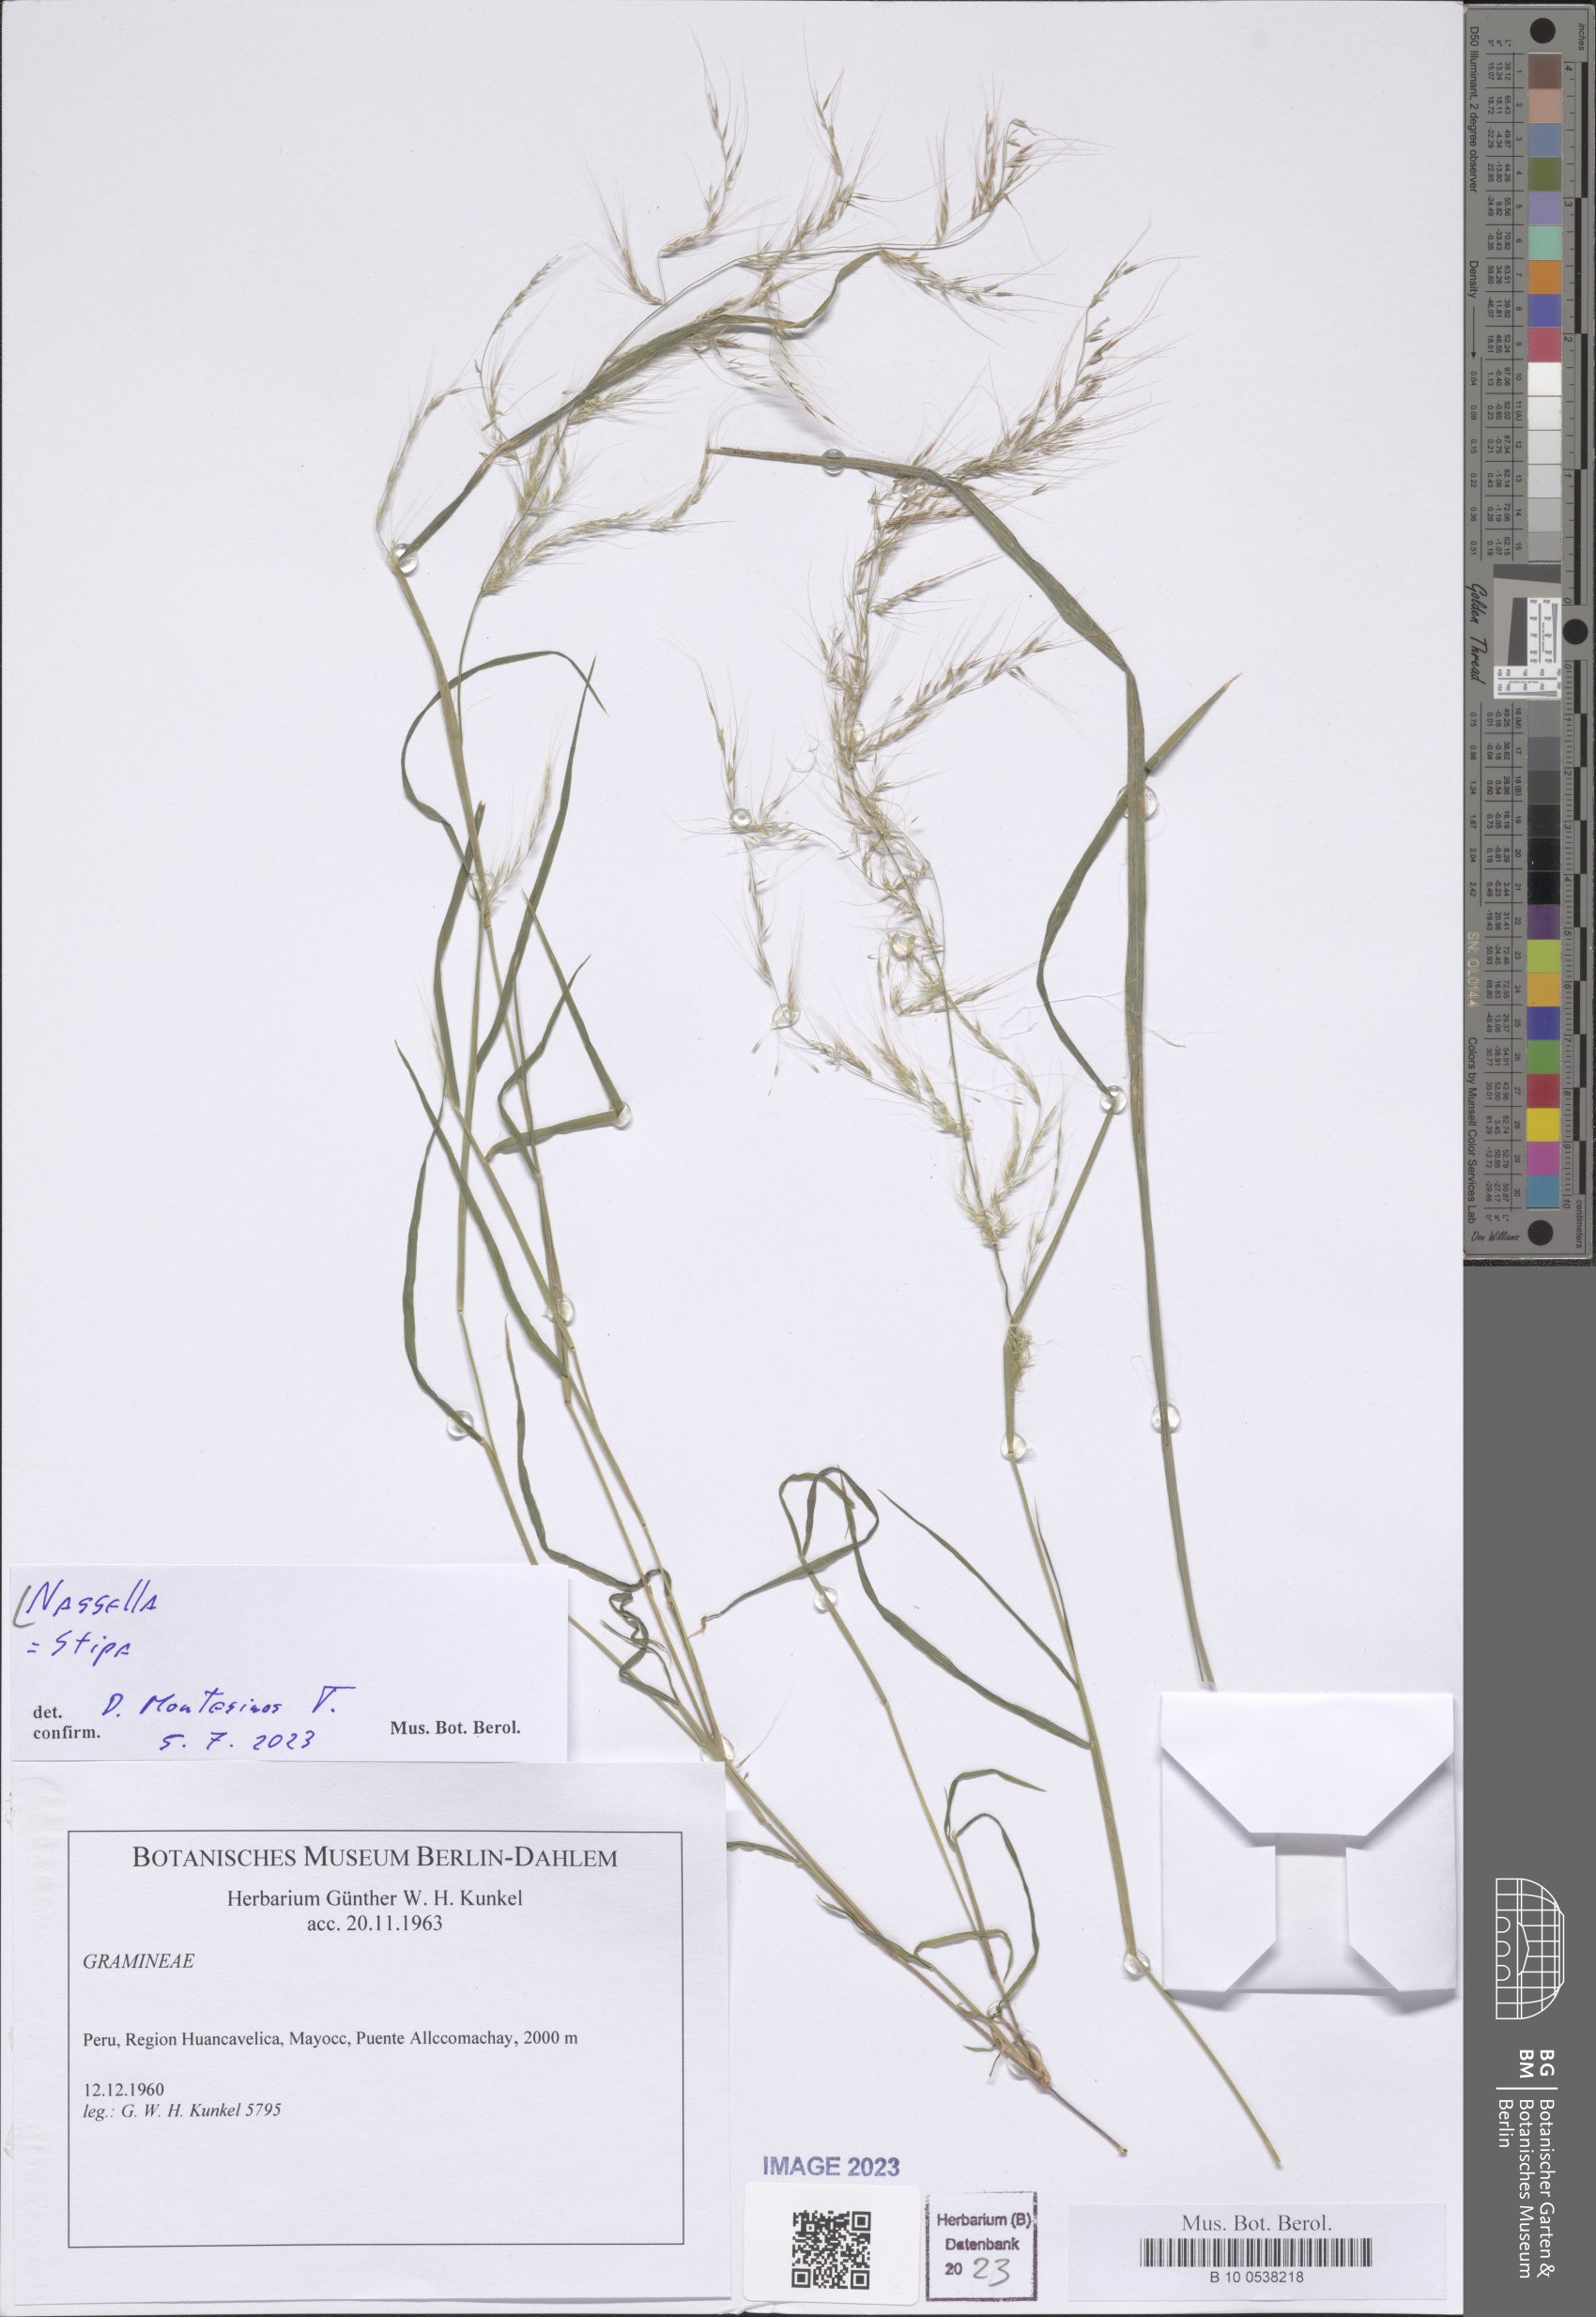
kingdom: Plantae
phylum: Tracheophyta
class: Liliopsida
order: Poales
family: Poaceae
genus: Nassella
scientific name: Nassella
